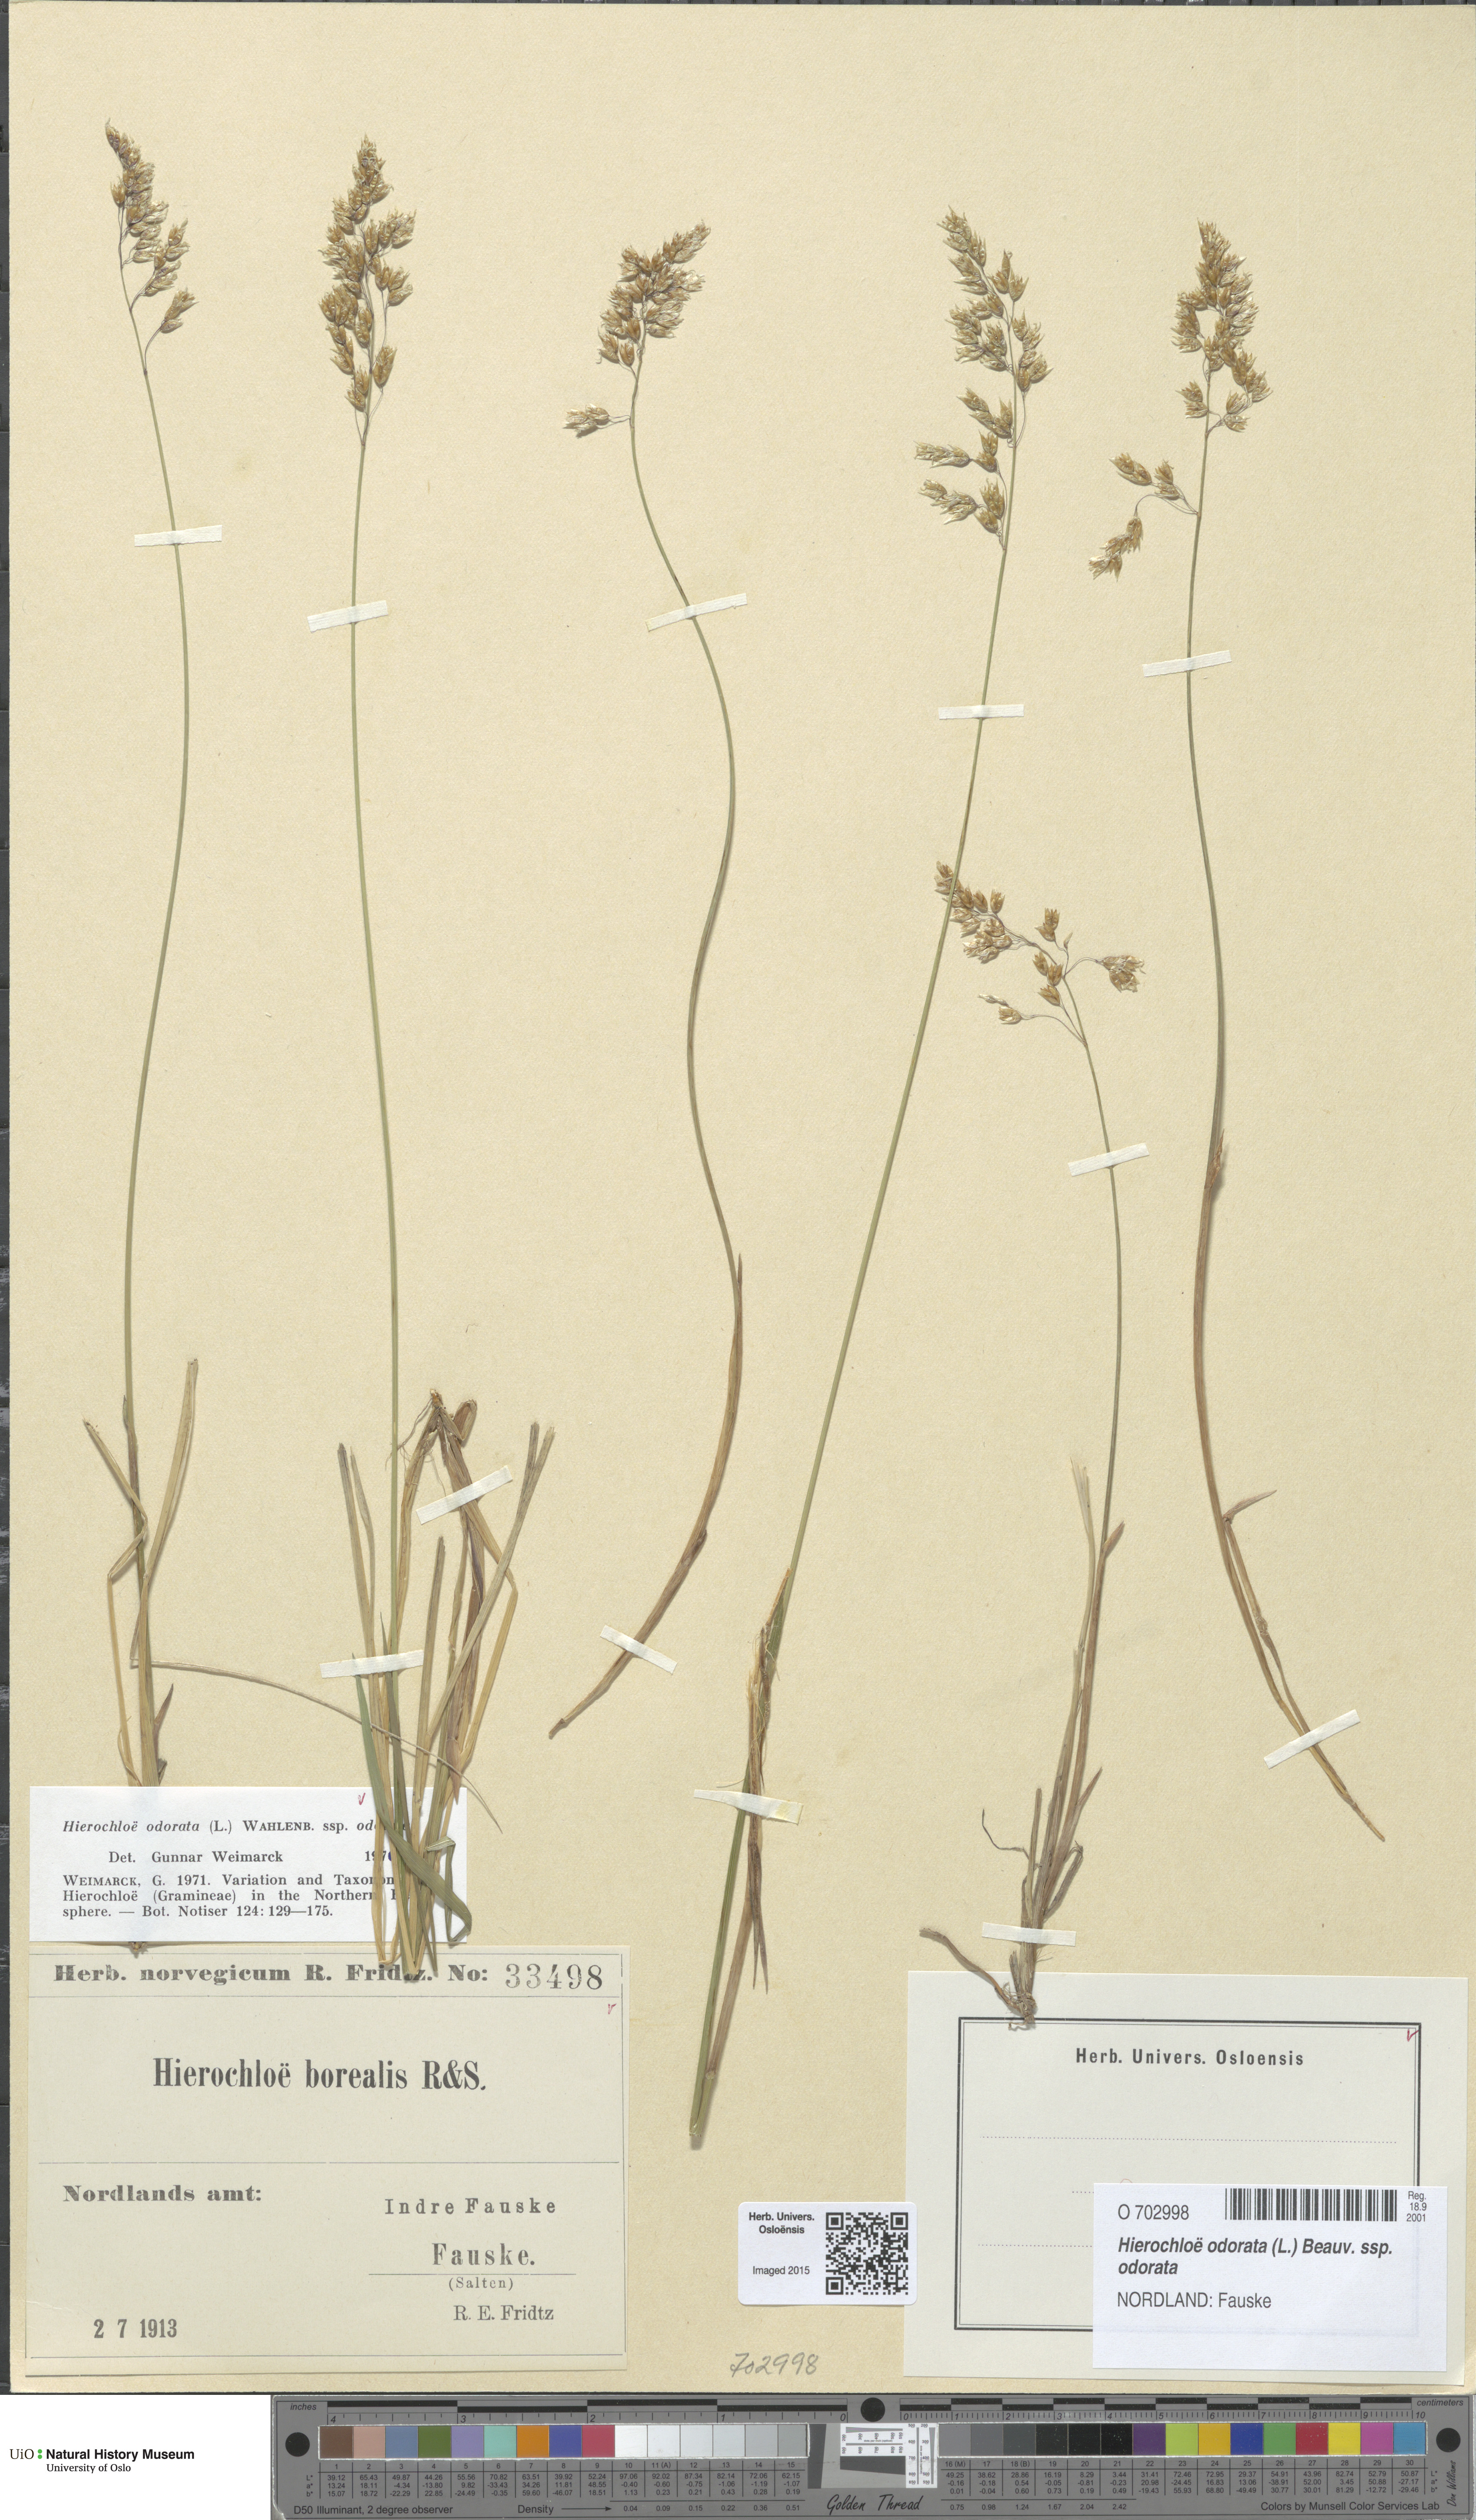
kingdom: Plantae
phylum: Tracheophyta
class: Liliopsida
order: Poales
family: Poaceae
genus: Anthoxanthum
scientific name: Anthoxanthum nitens
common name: Holy grass
